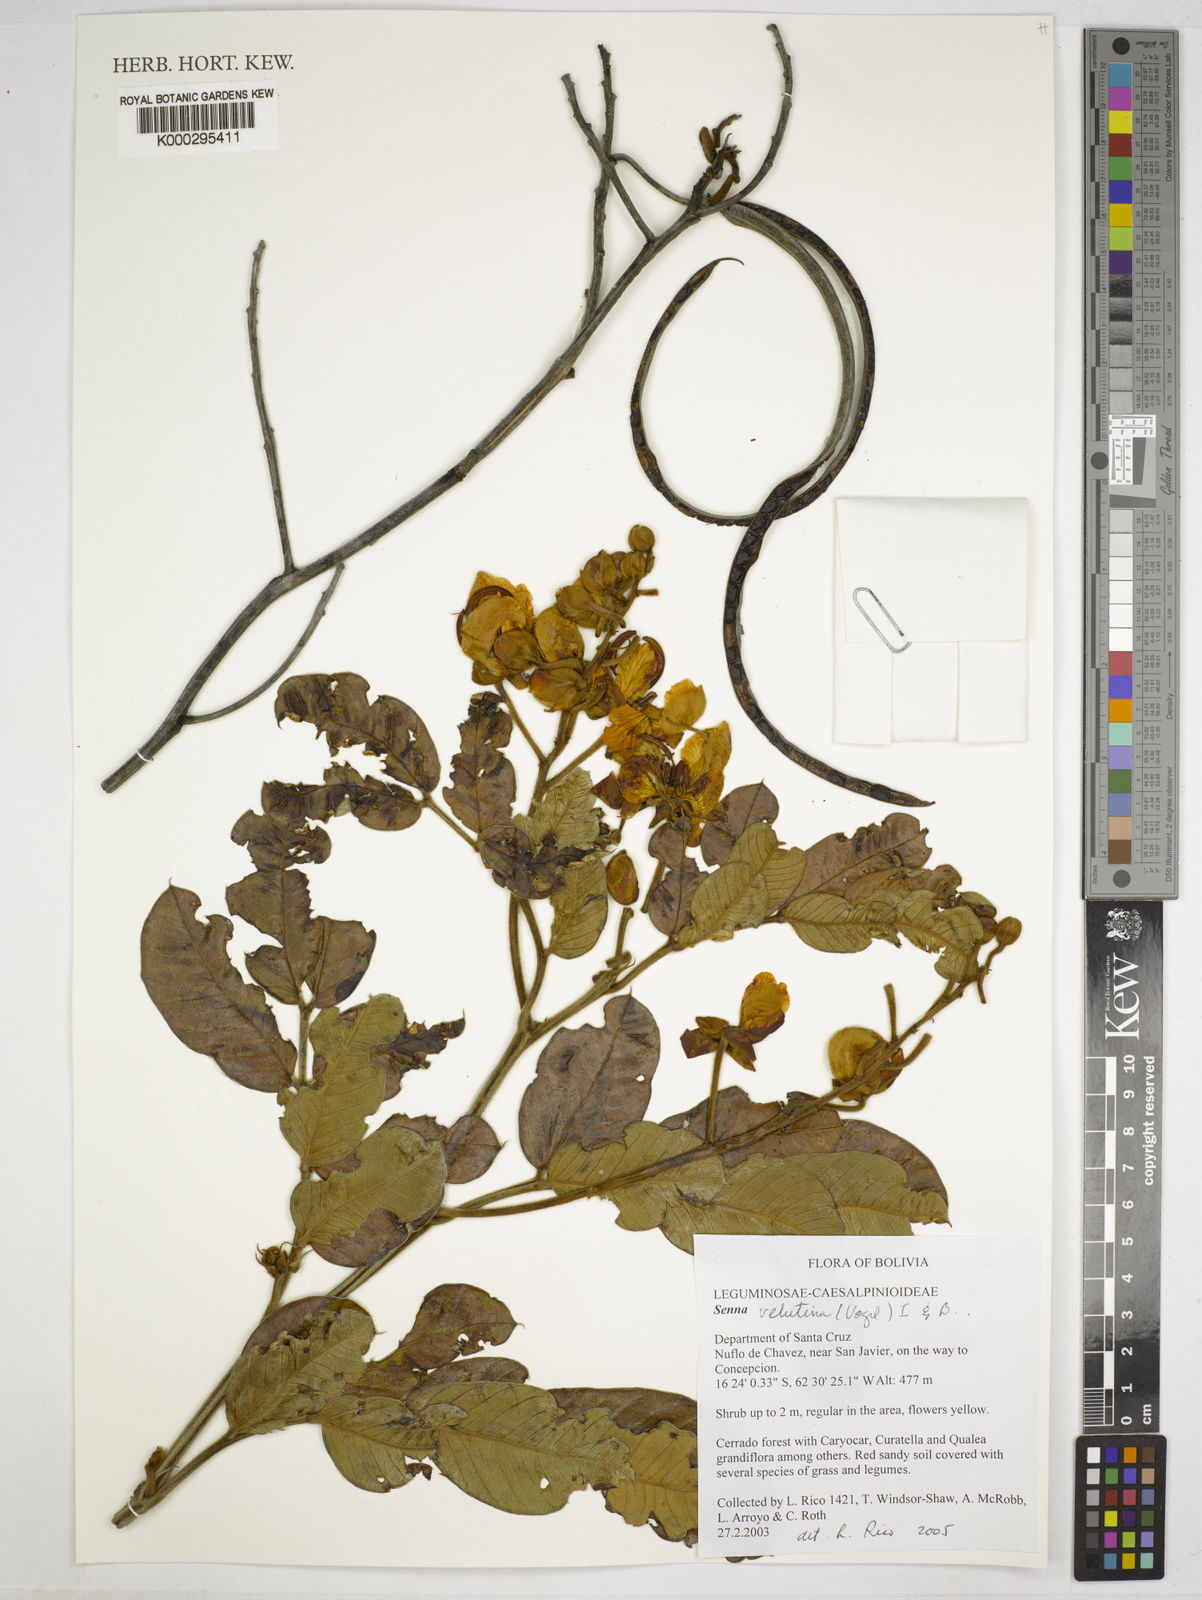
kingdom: Plantae
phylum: Tracheophyta
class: Magnoliopsida
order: Fabales
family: Fabaceae
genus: Senna
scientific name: Senna
